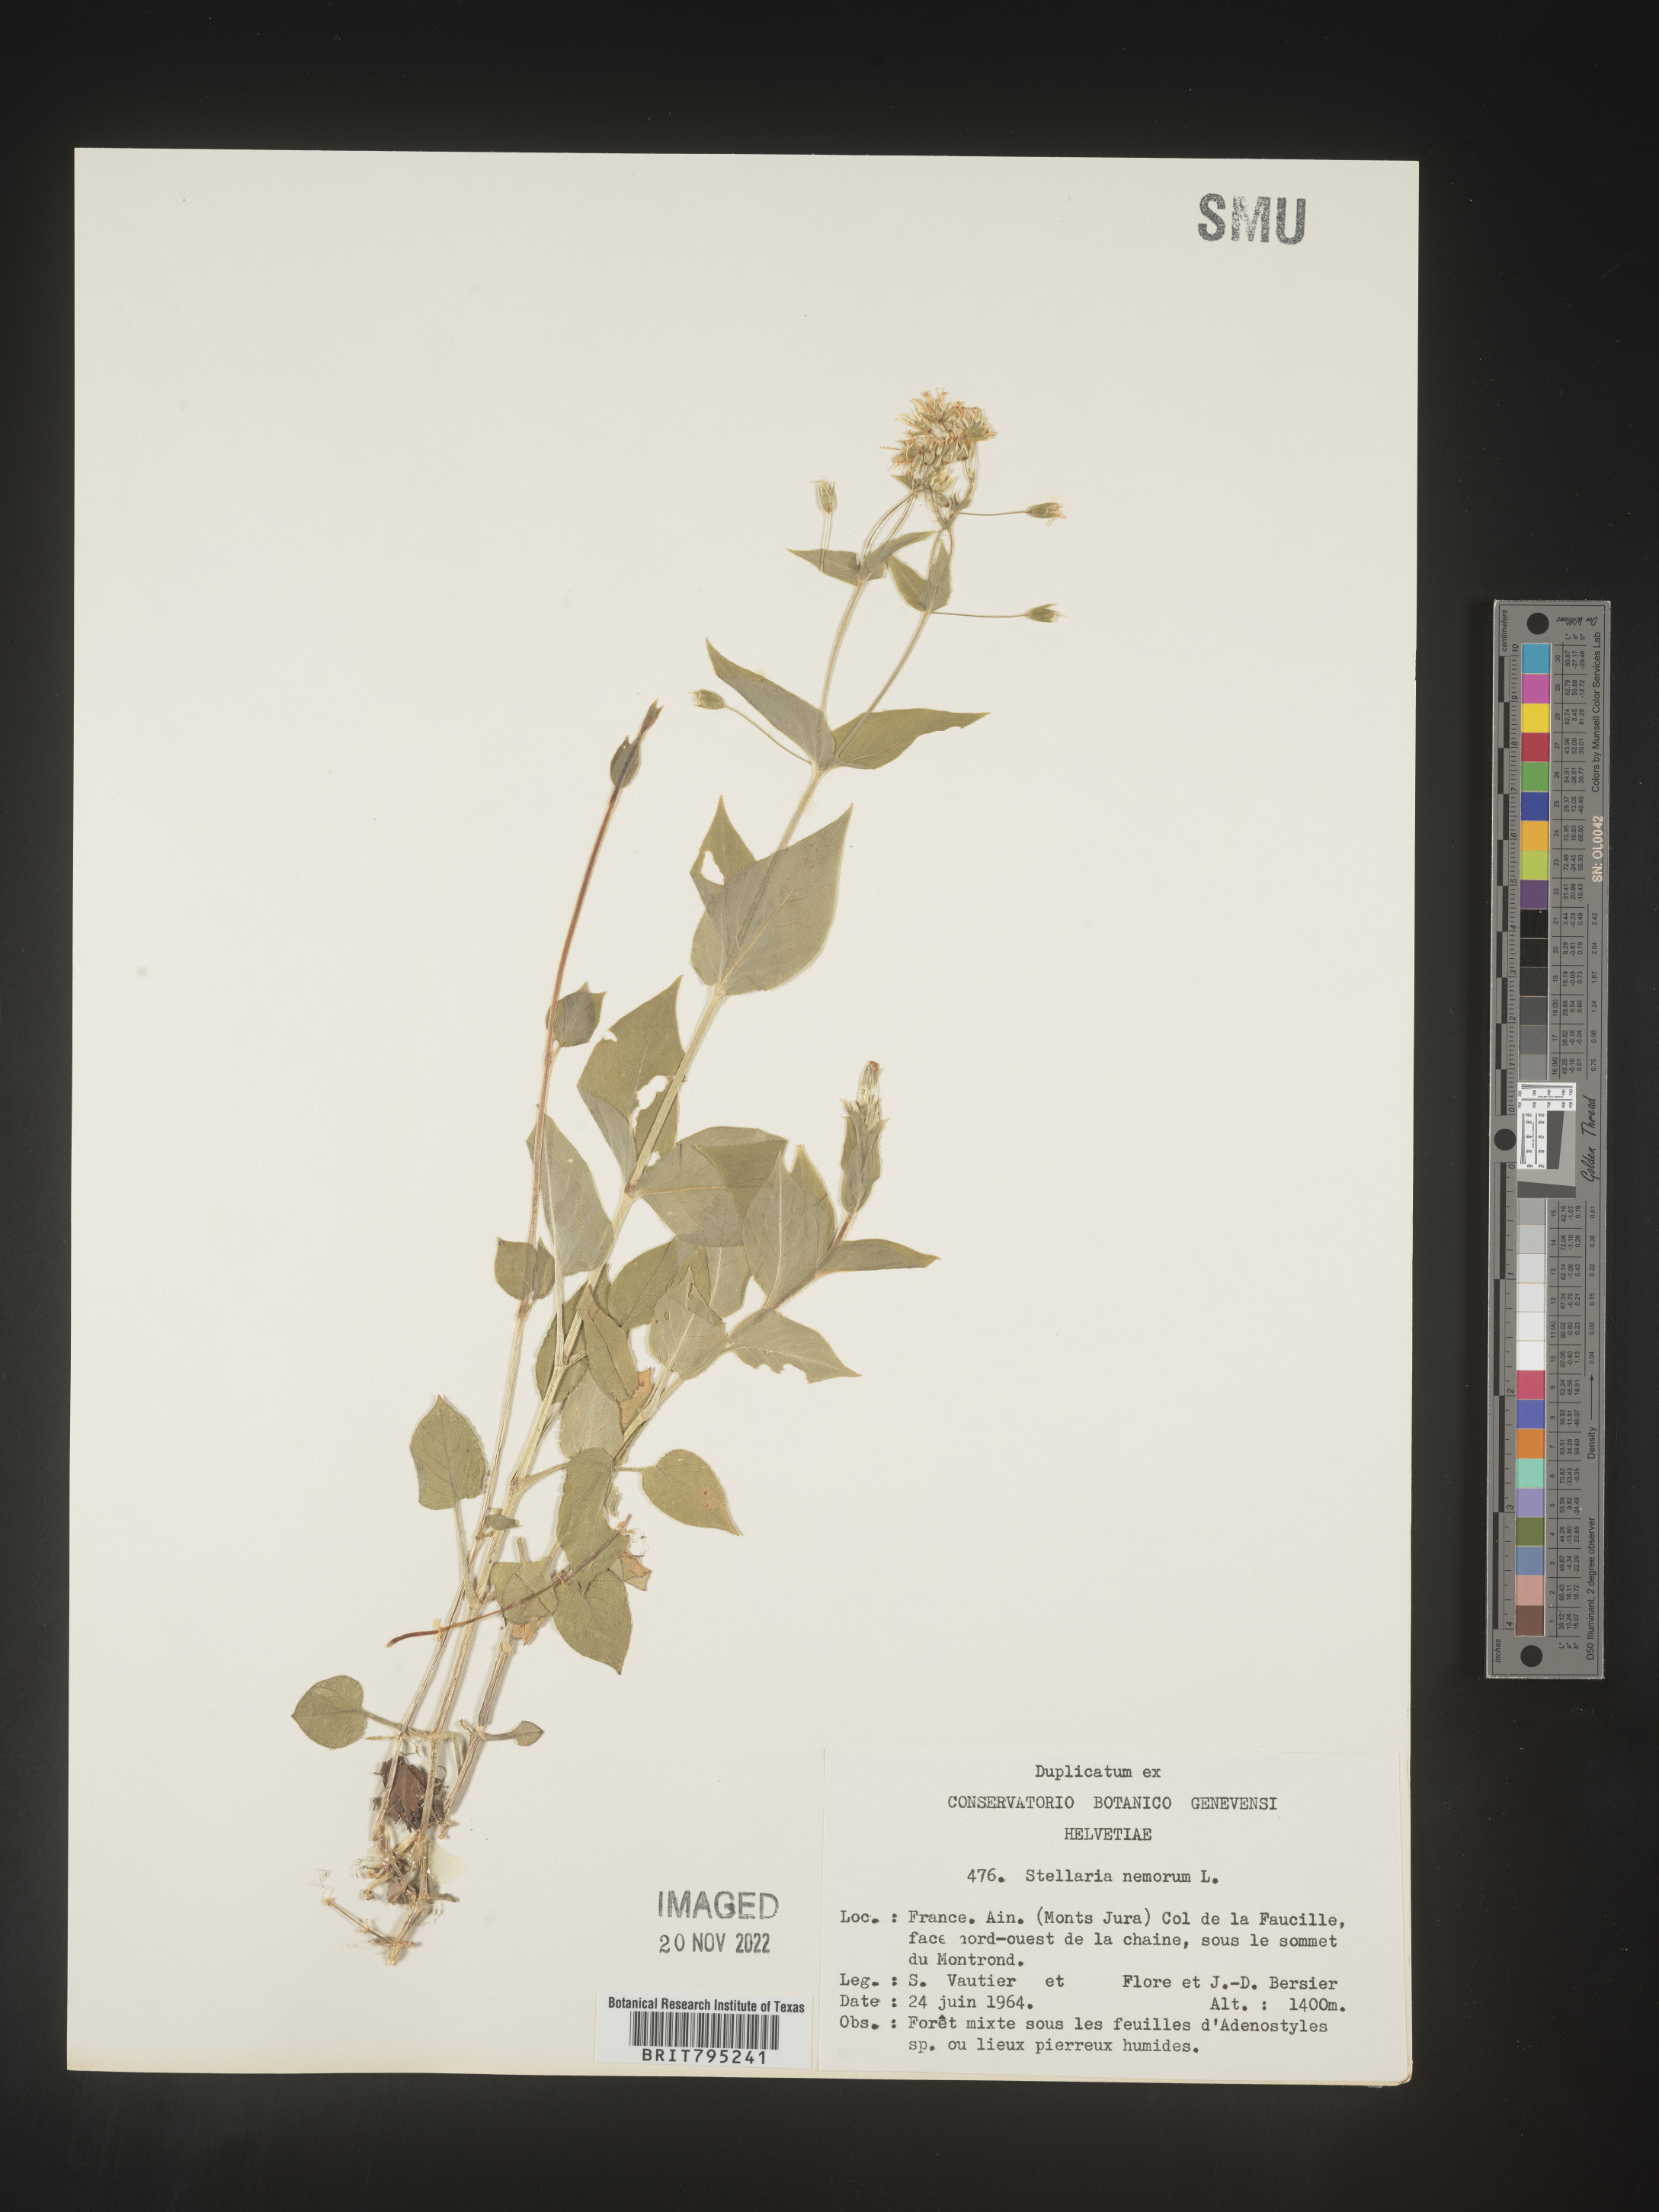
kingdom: Plantae
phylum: Tracheophyta
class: Magnoliopsida
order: Caryophyllales
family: Caryophyllaceae
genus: Stellaria
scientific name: Stellaria
